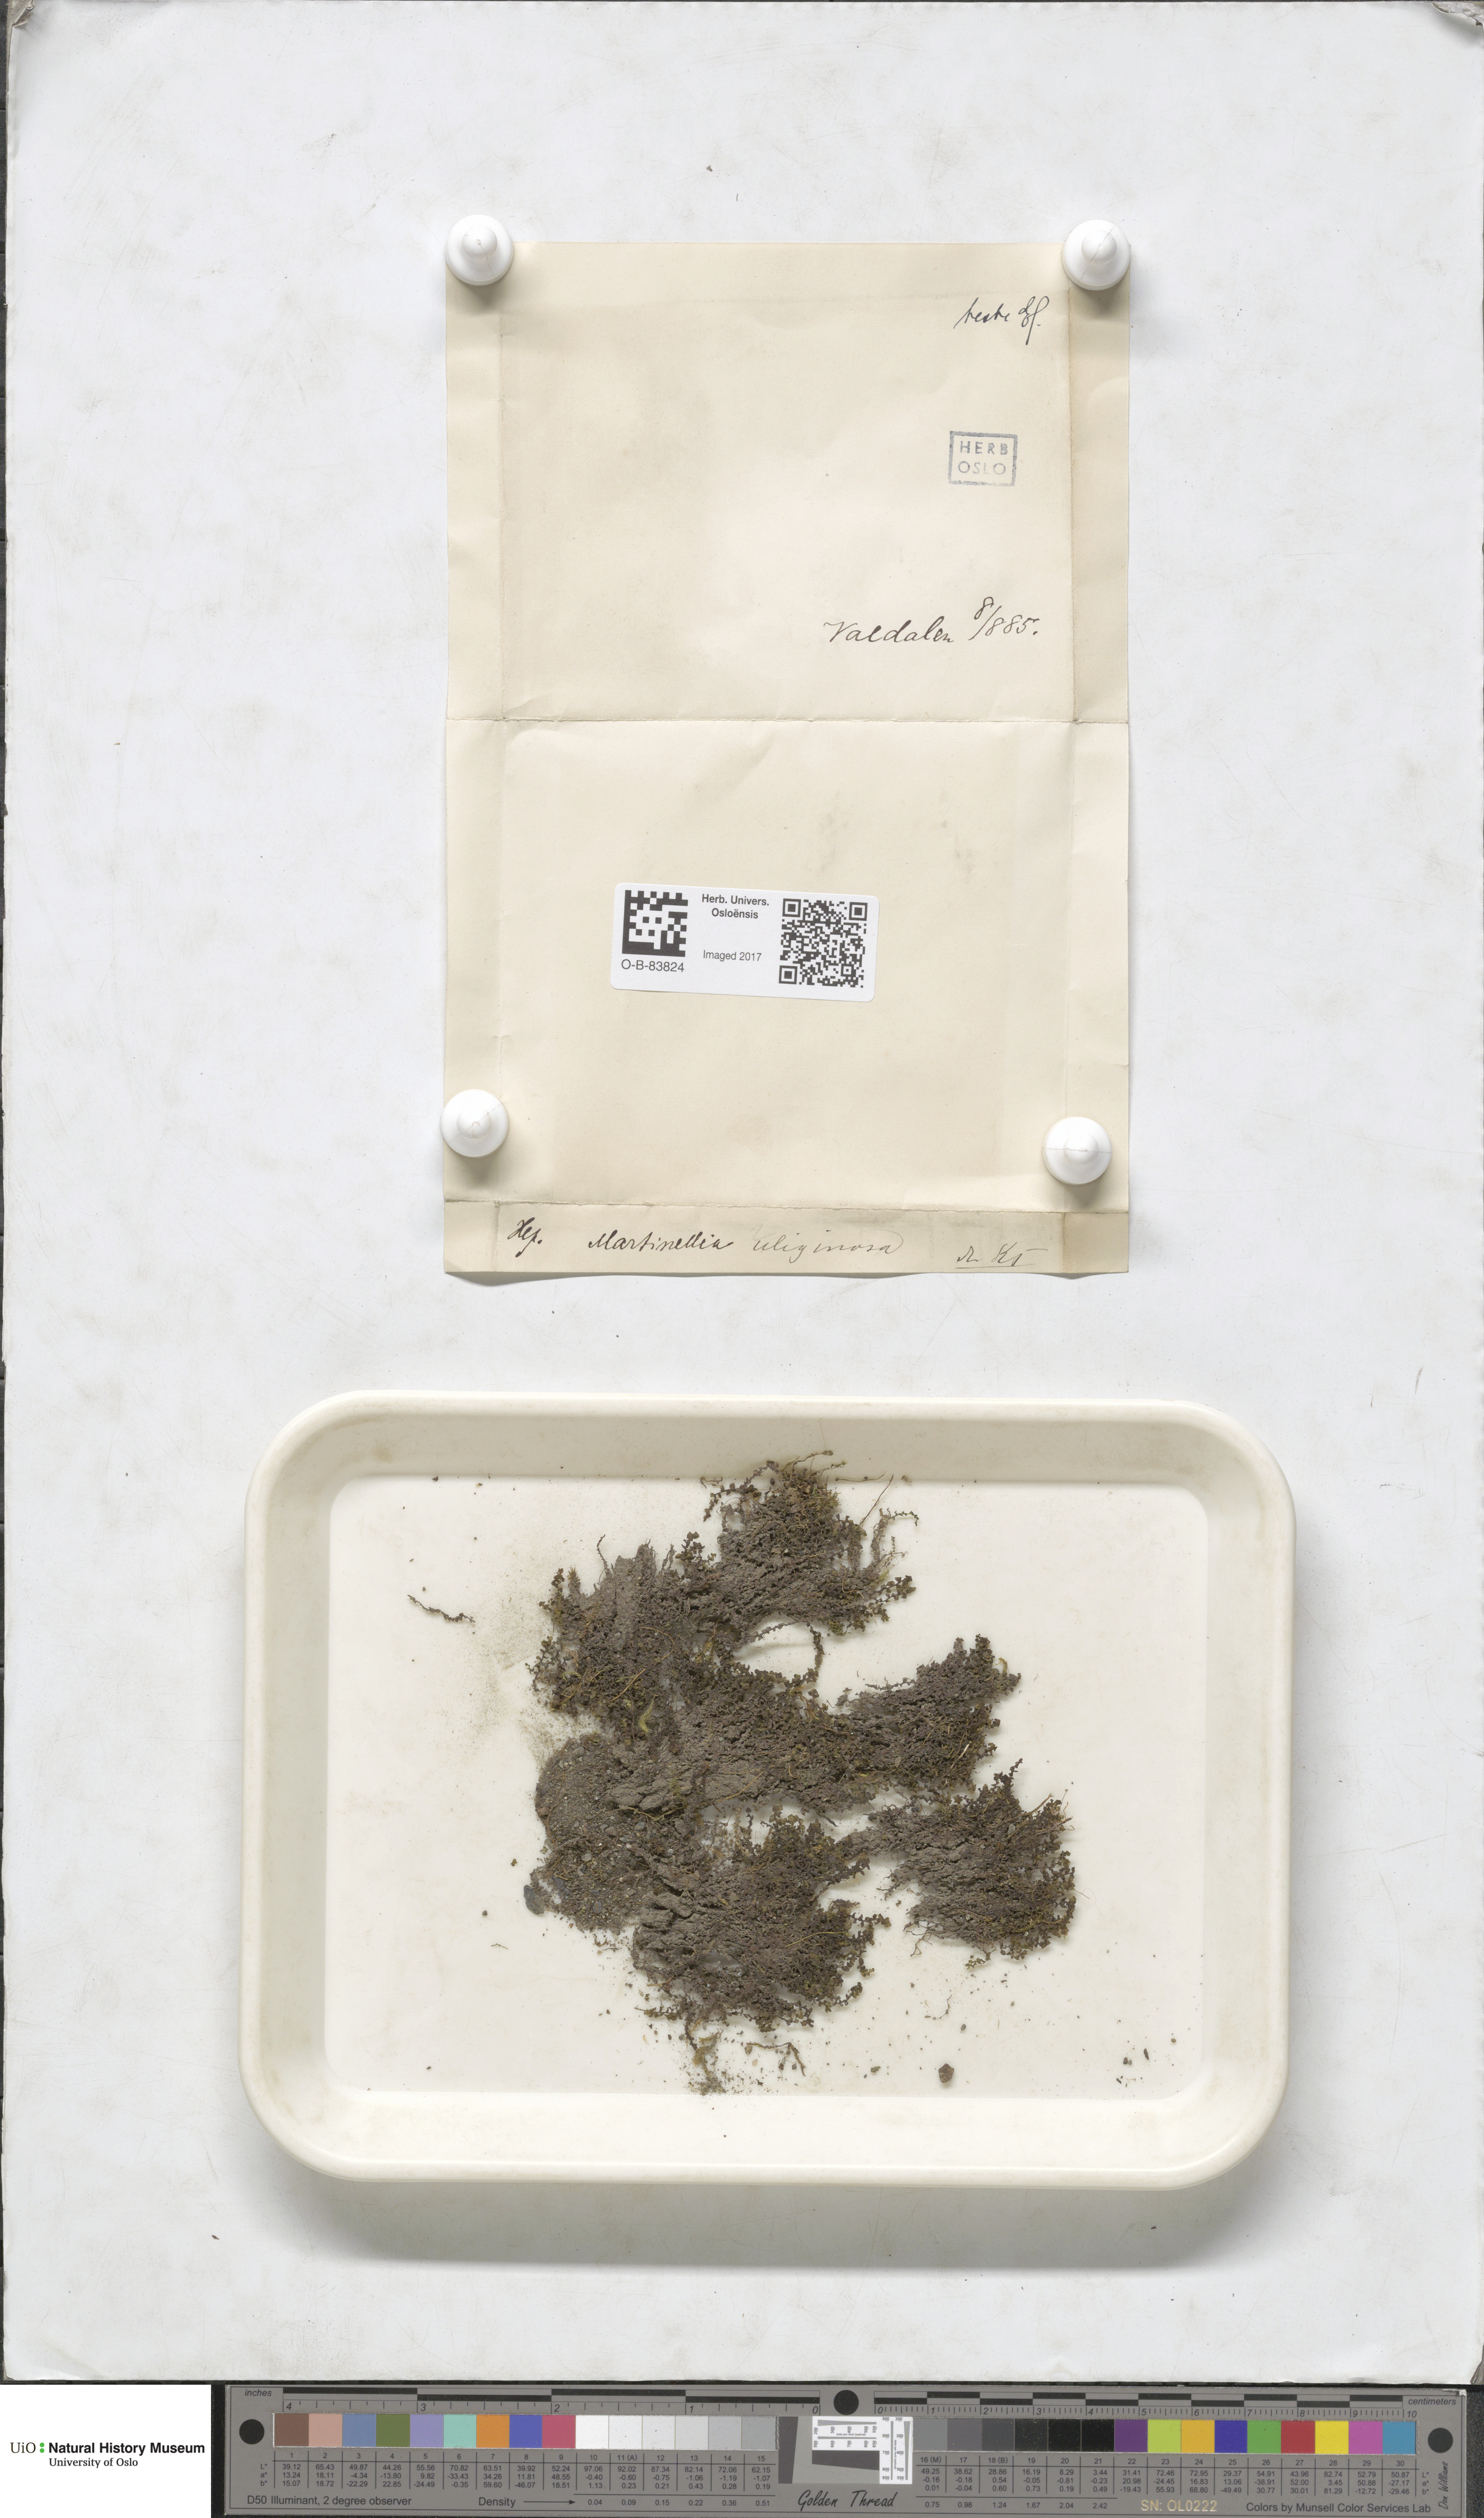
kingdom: Plantae
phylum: Marchantiophyta
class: Jungermanniopsida
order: Jungermanniales
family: Scapaniaceae
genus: Scapania
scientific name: Scapania uliginosa
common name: Marsh earwort
